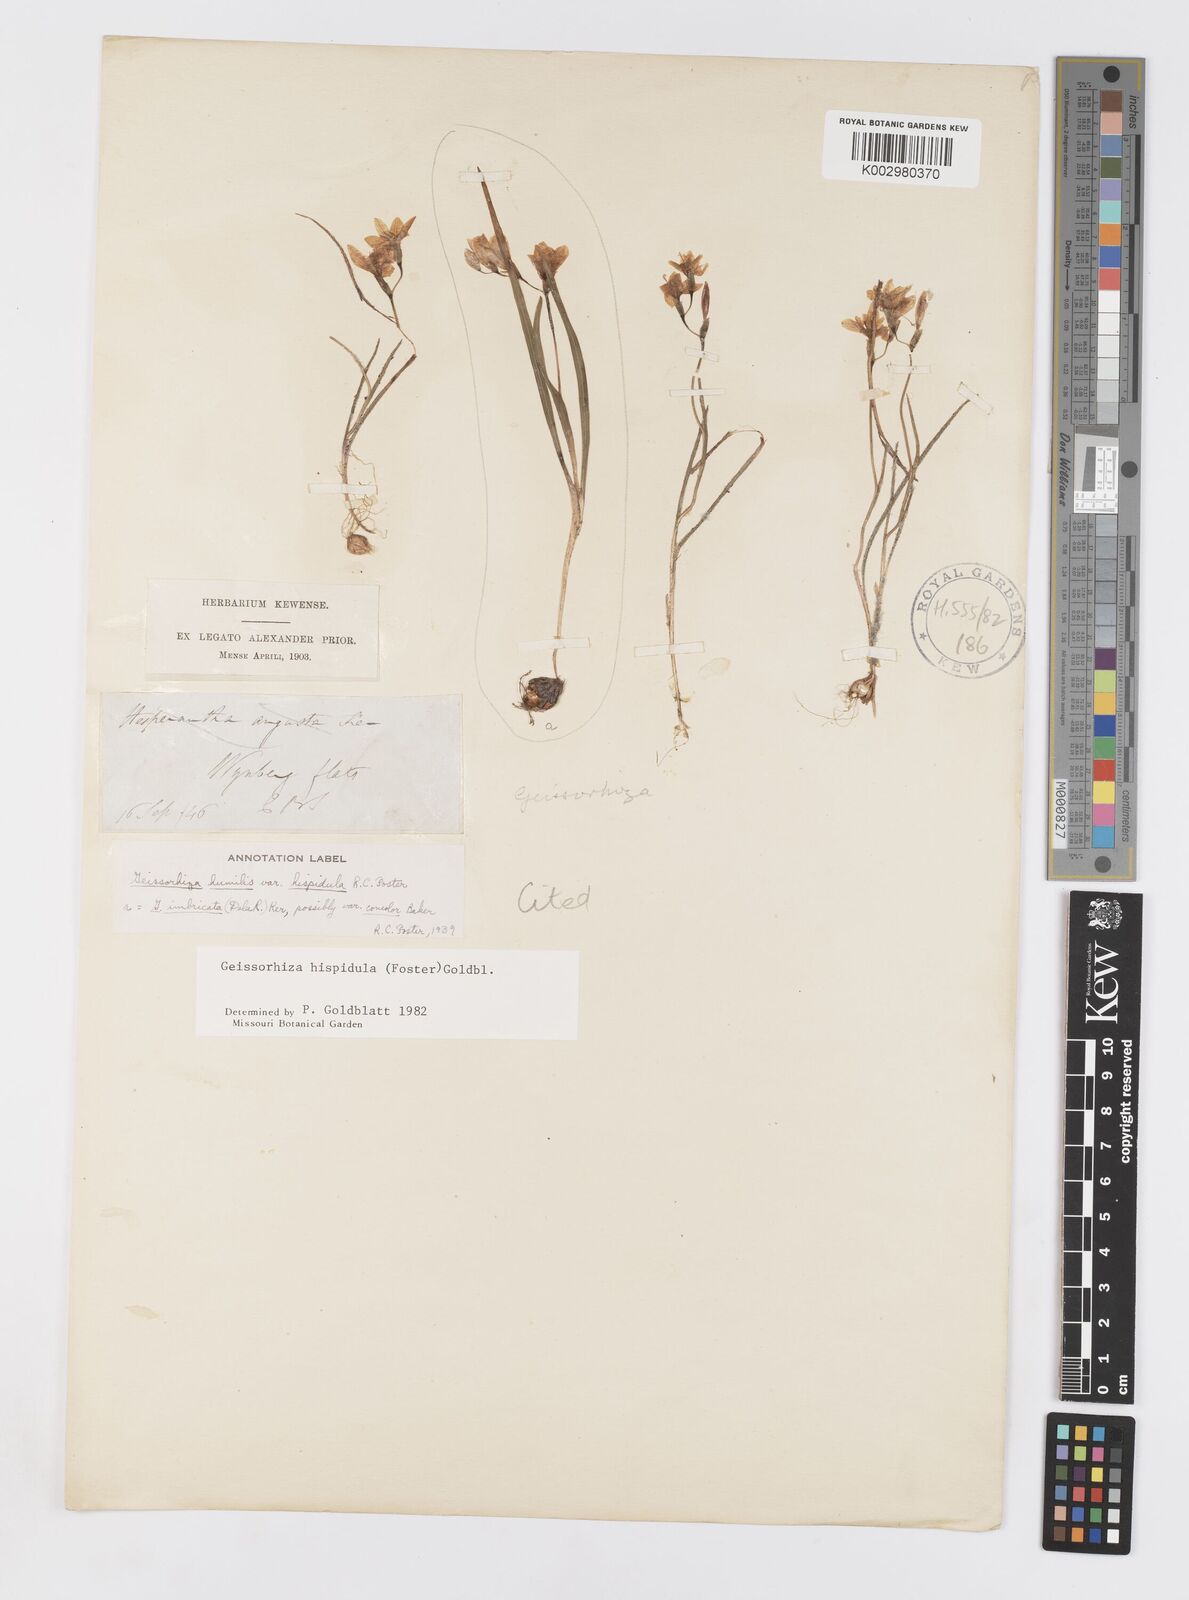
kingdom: Plantae
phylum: Tracheophyta
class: Liliopsida
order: Asparagales
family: Iridaceae
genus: Geissorhiza
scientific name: Geissorhiza hispidula
